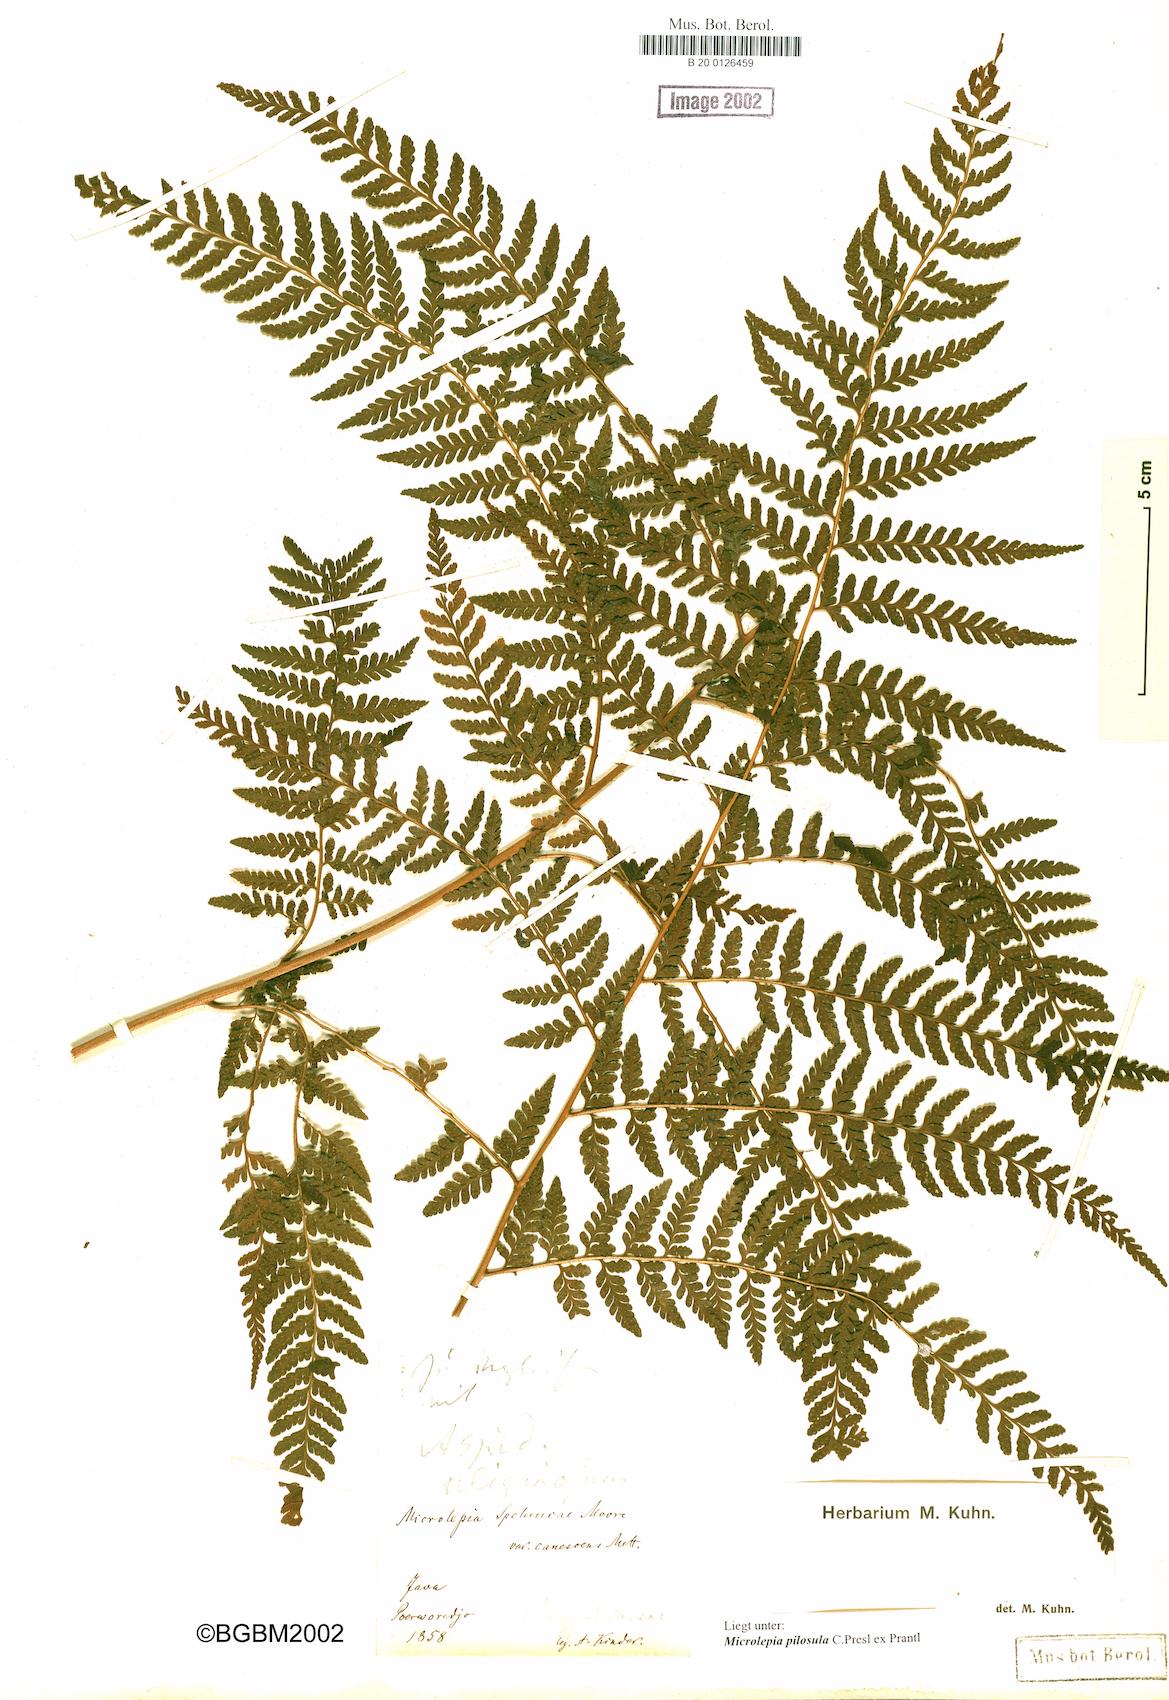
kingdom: Plantae
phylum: Tracheophyta
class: Polypodiopsida
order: Polypodiales
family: Dennstaedtiaceae
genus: Microlepia
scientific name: Microlepia speluncae
